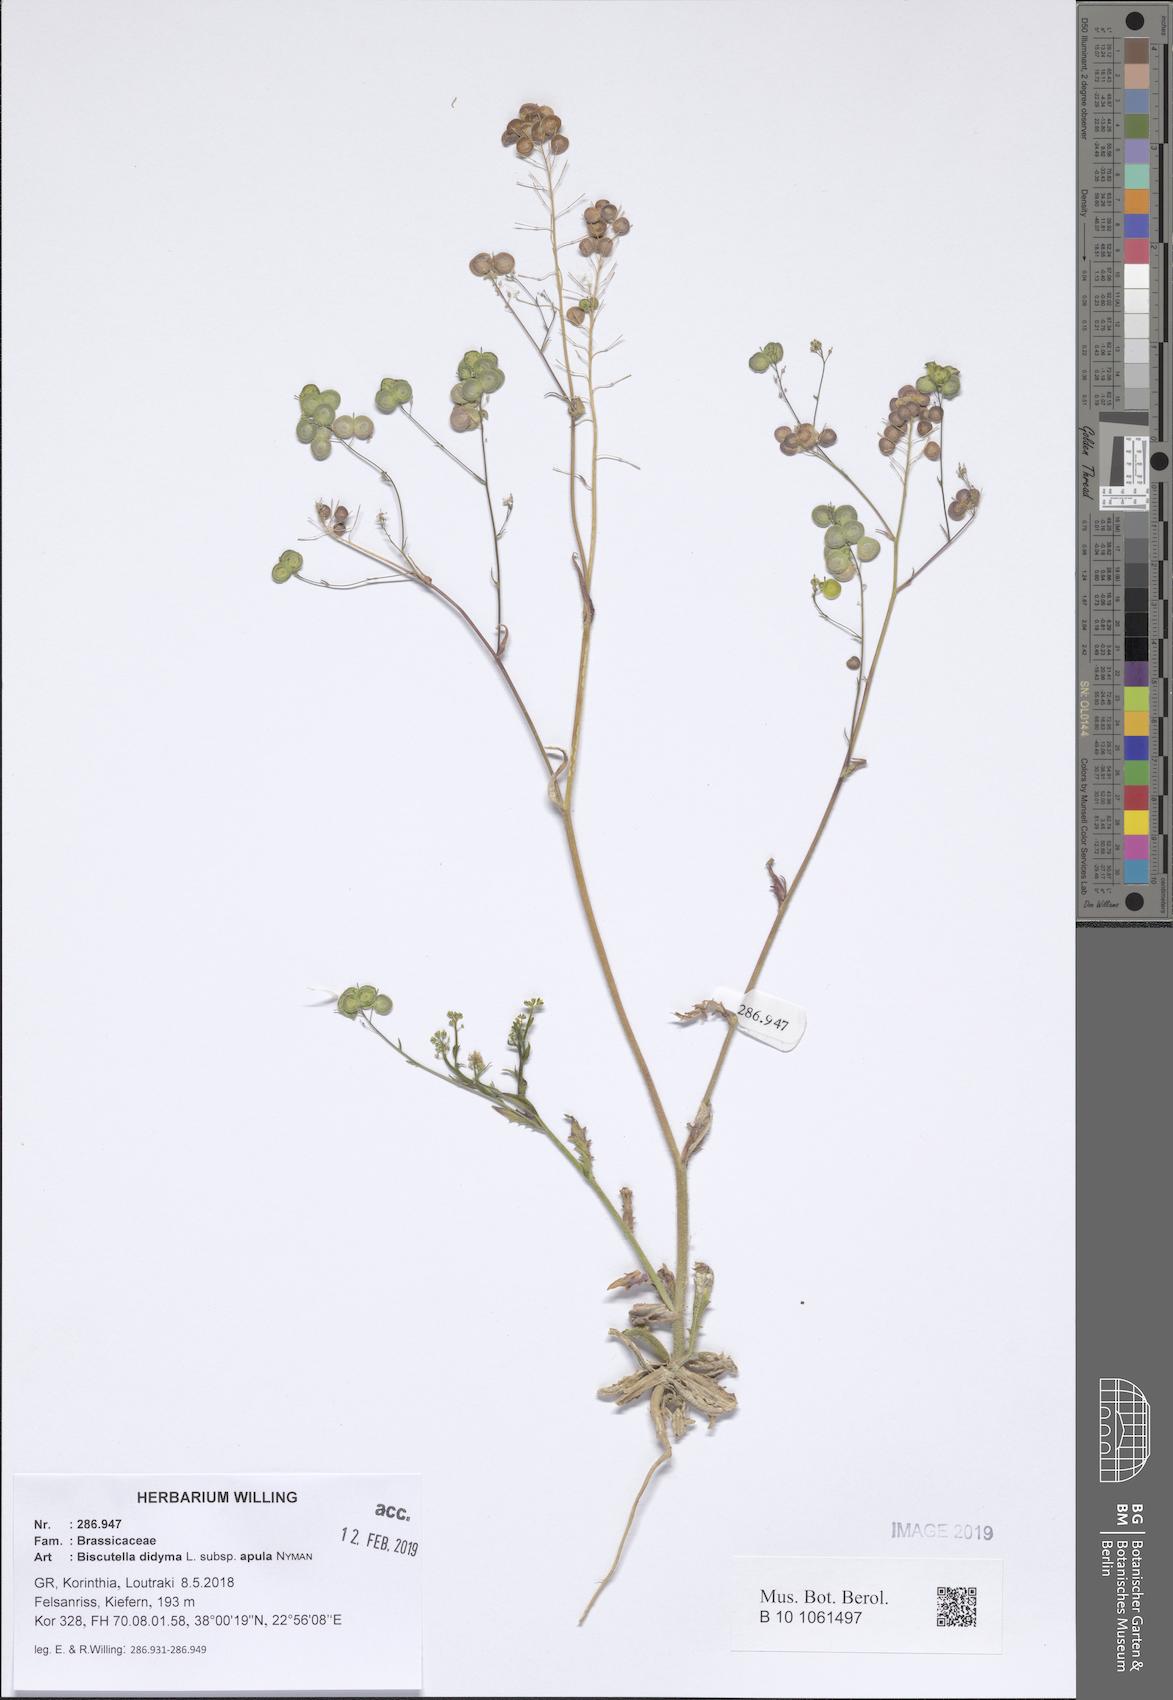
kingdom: Plantae
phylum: Tracheophyta
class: Magnoliopsida
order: Brassicales
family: Brassicaceae
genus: Biscutella
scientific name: Biscutella didyma
